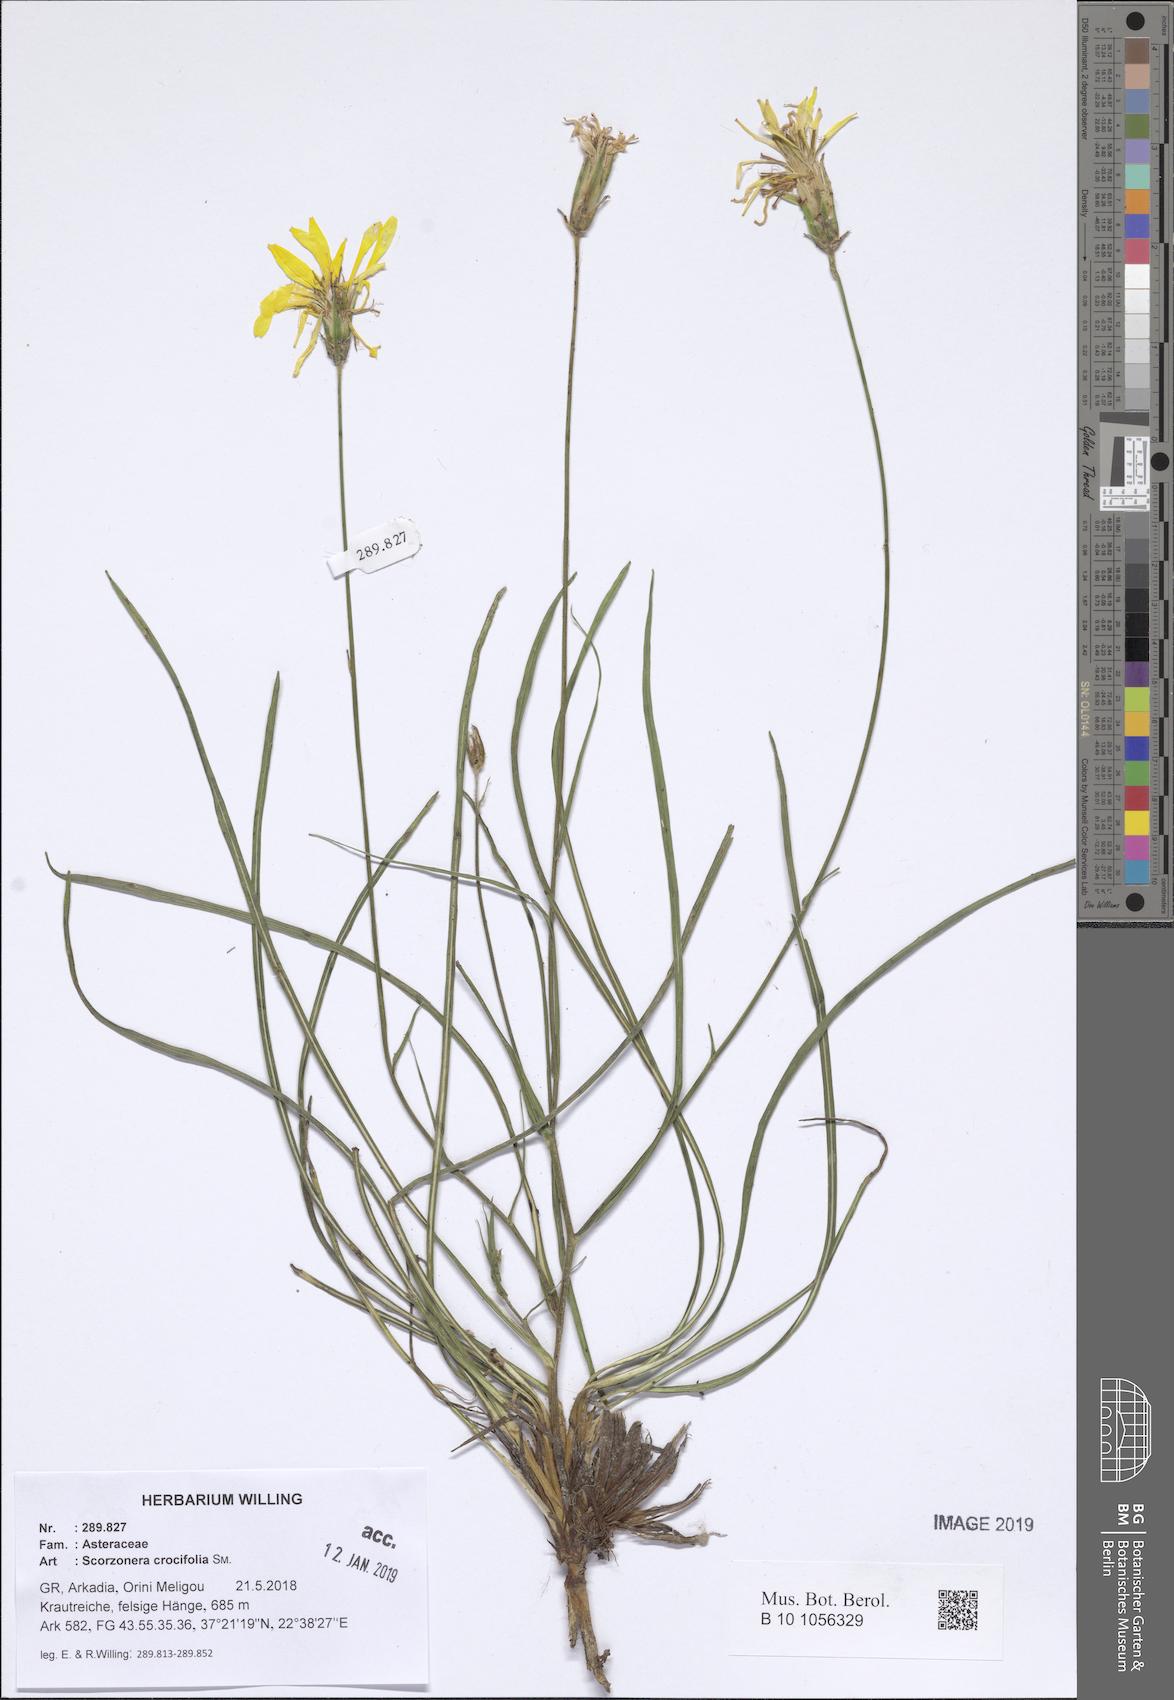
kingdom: Plantae
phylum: Tracheophyta
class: Magnoliopsida
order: Asterales
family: Asteraceae
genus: Pseudopodospermum
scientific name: Pseudopodospermum crocifolium
